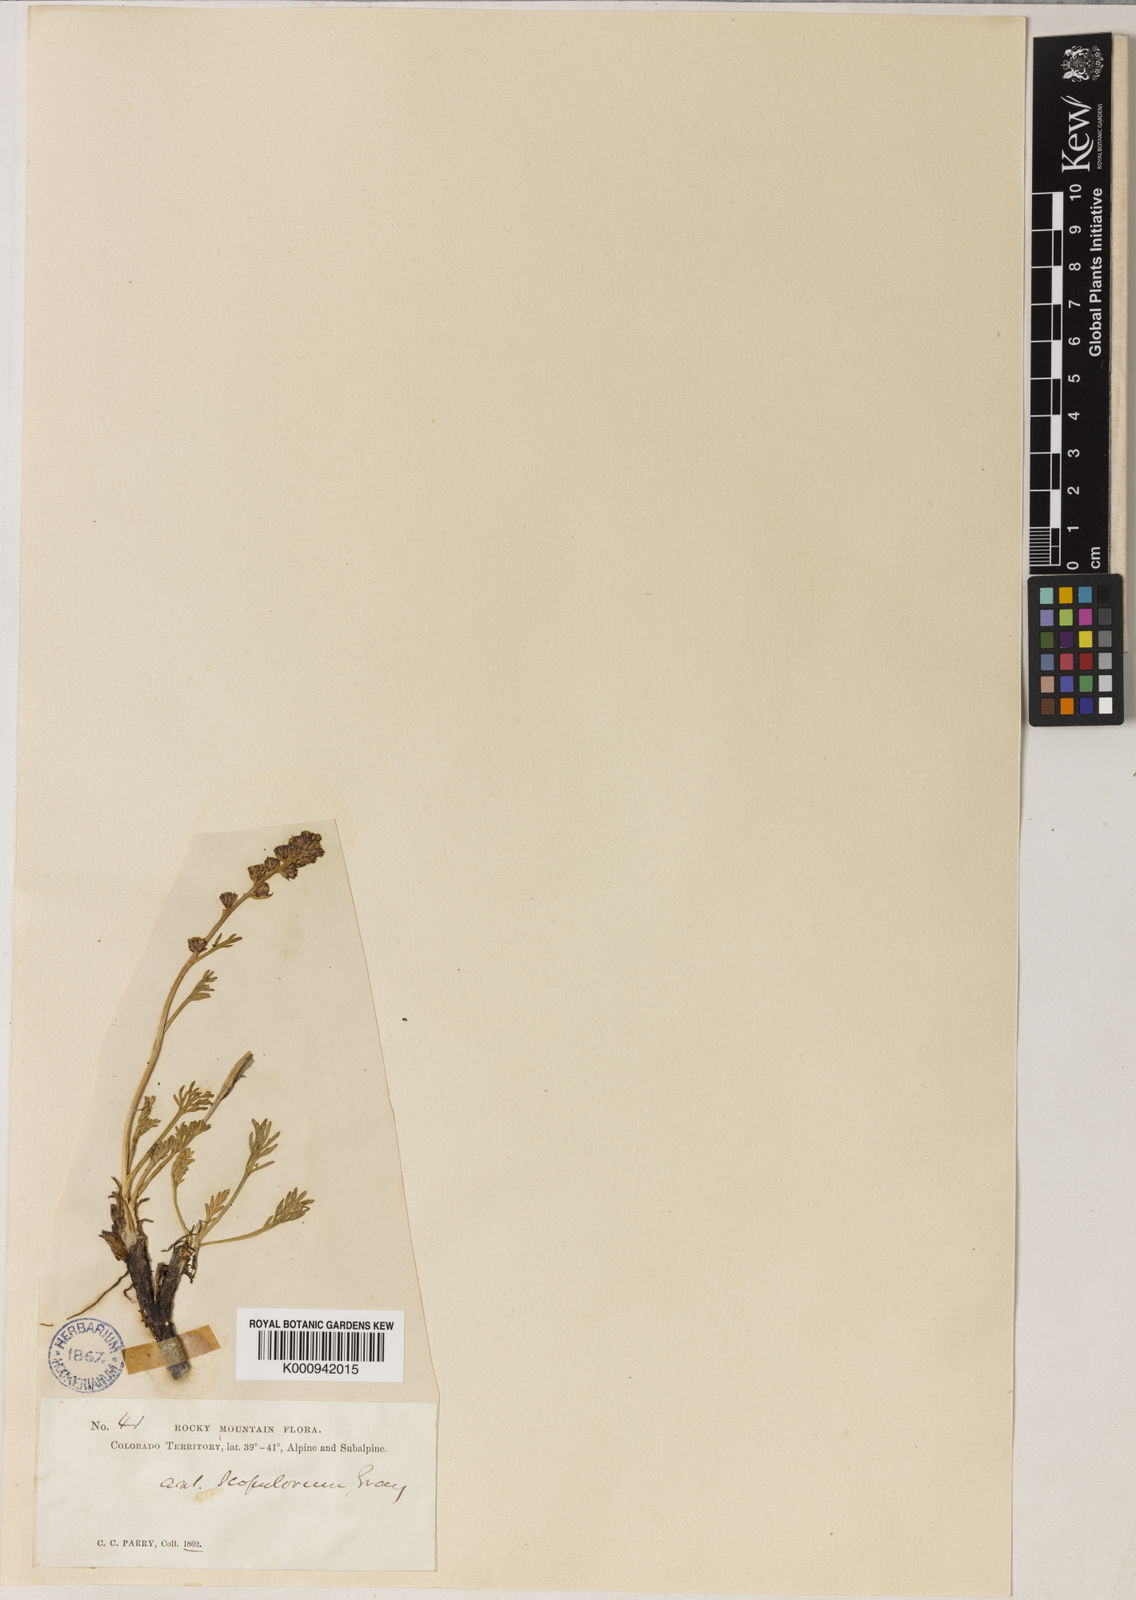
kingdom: Plantae
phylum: Tracheophyta
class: Magnoliopsida
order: Asterales
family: Asteraceae
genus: Artemisia
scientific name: Artemisia scopulorum
